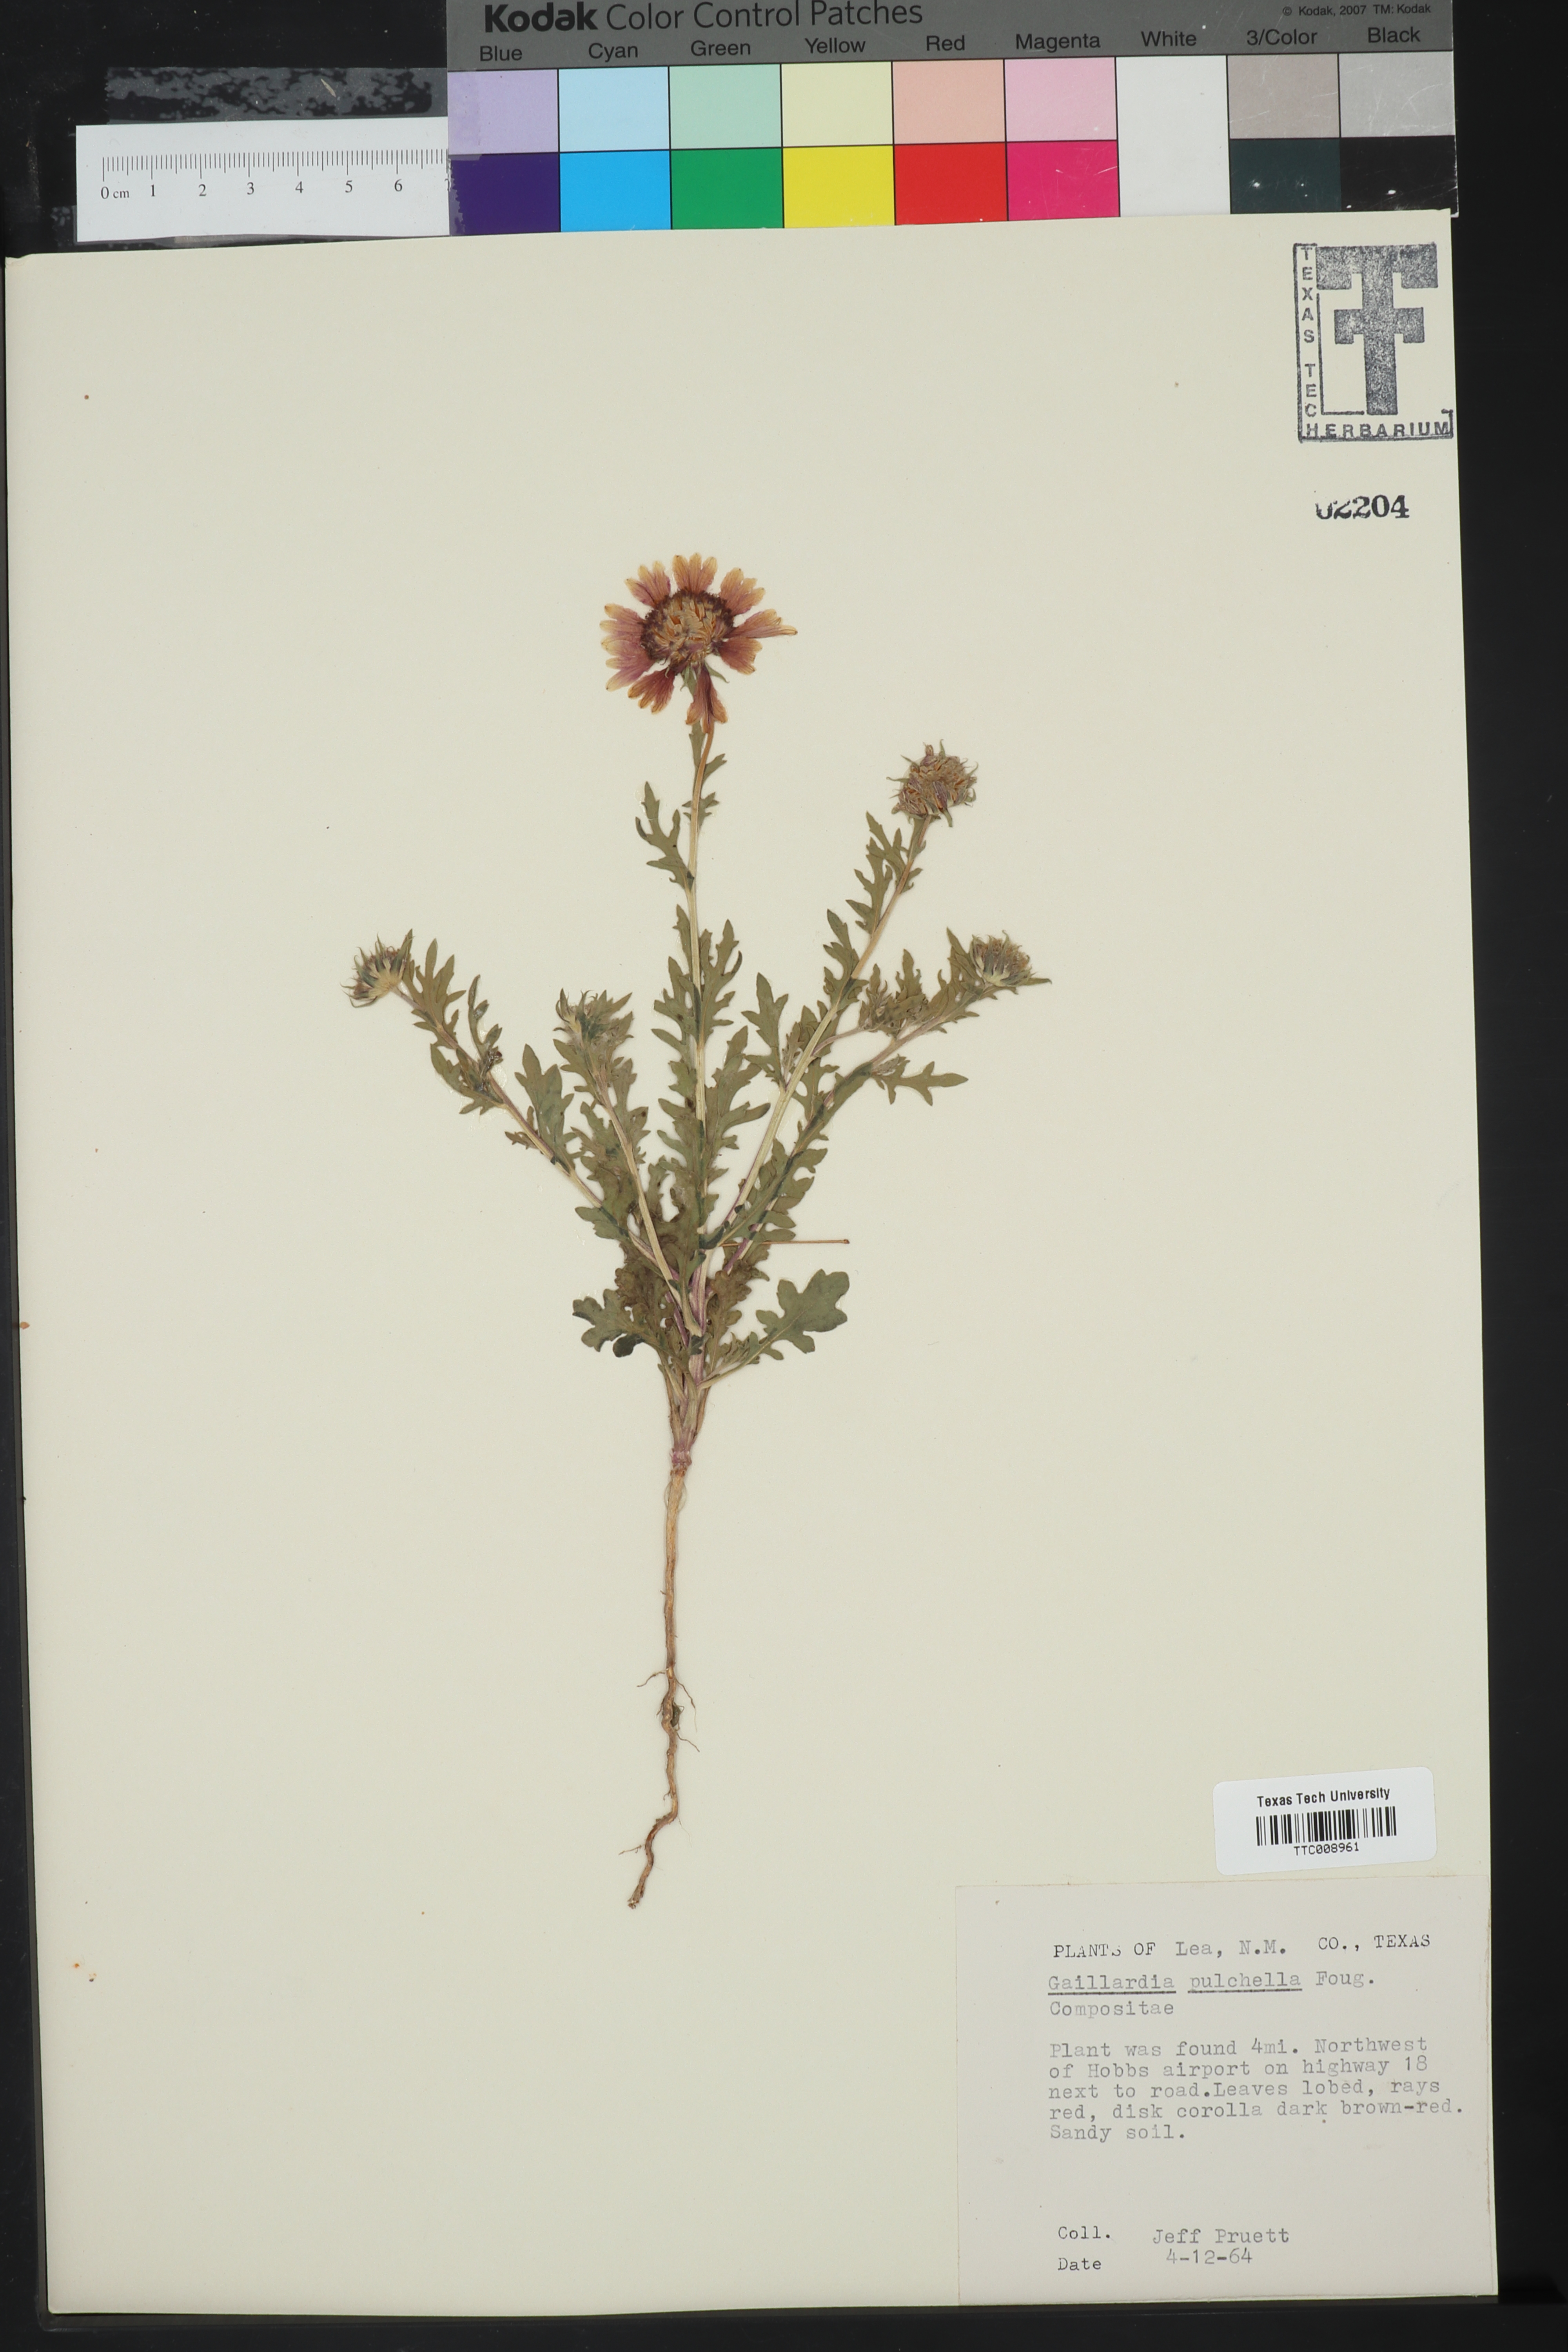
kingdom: Plantae
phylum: Tracheophyta
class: Magnoliopsida
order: Asterales
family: Asteraceae
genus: Gaillardia
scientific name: Gaillardia pulchella
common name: Firewheel
